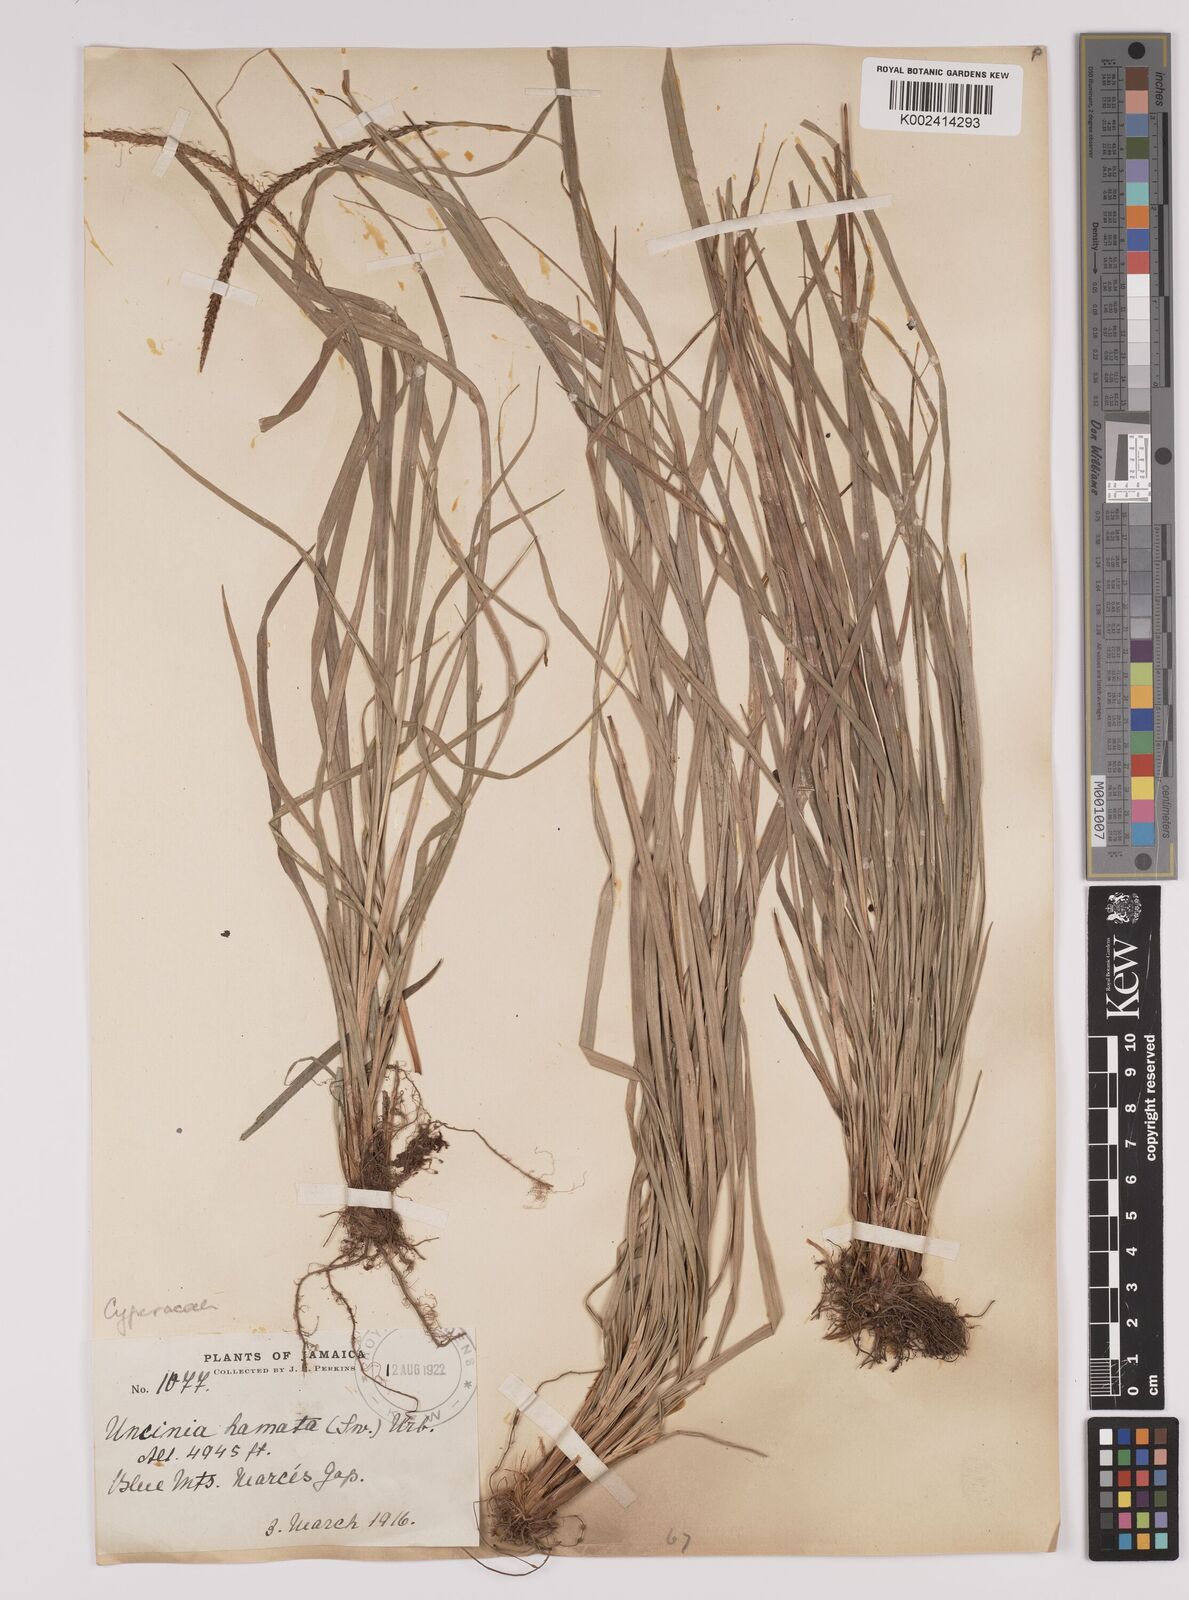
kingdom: Plantae
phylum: Tracheophyta
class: Liliopsida
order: Poales
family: Cyperaceae
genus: Carex
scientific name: Carex hamata
